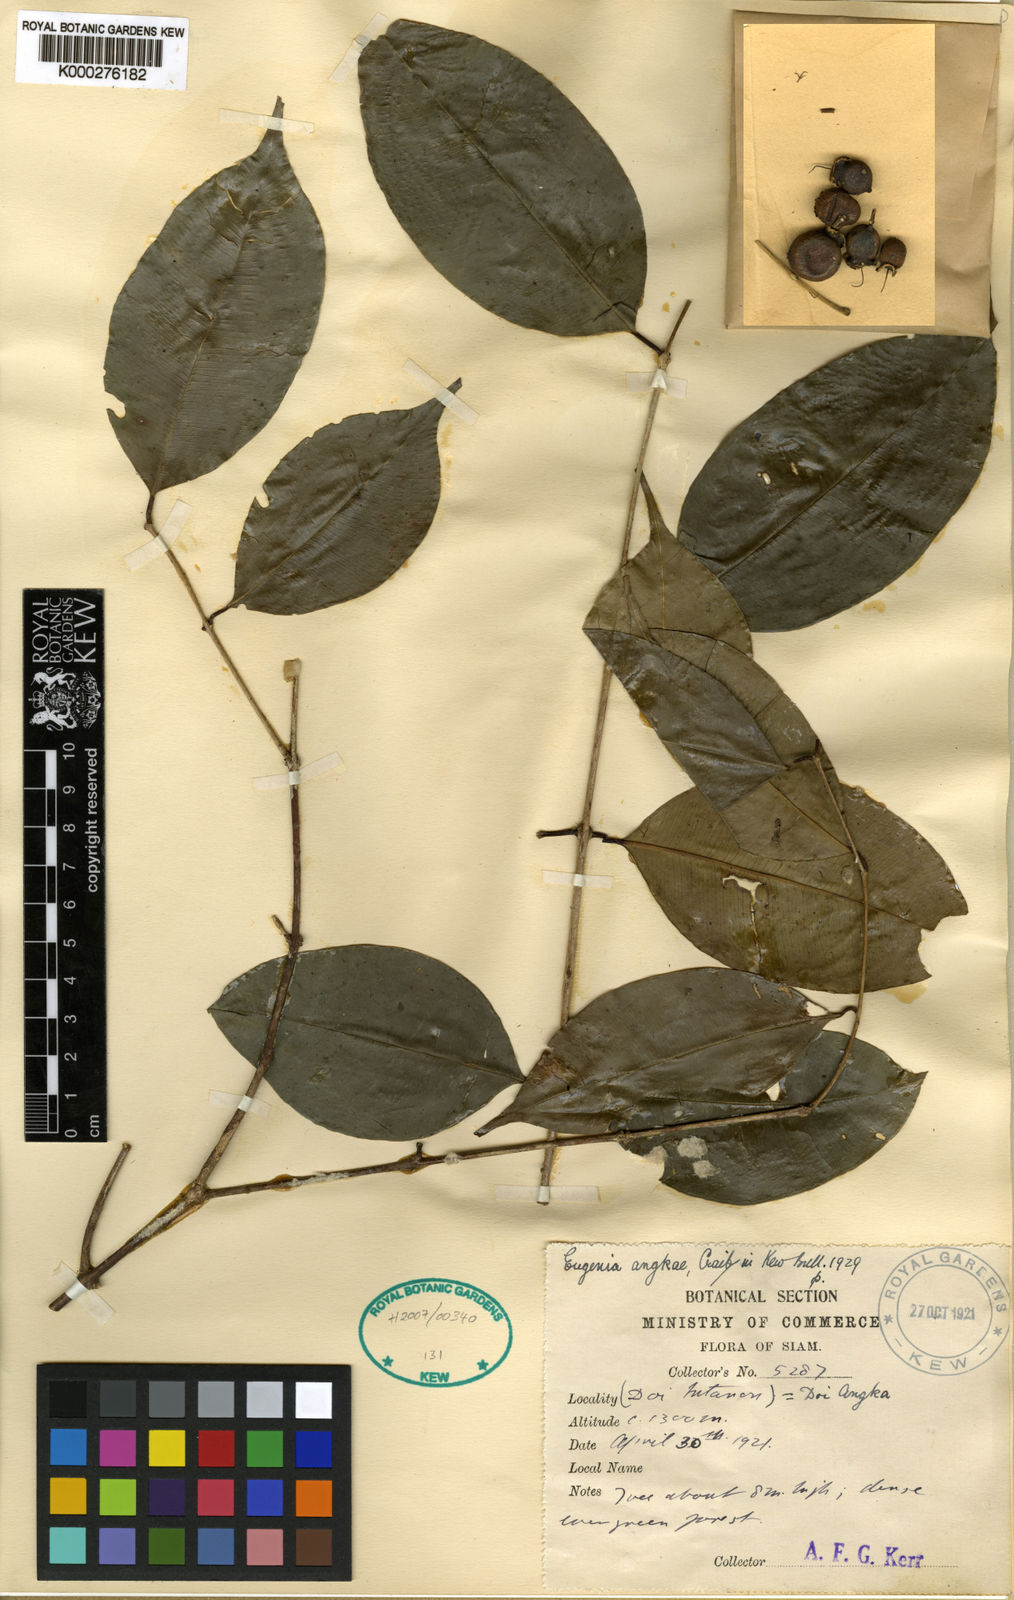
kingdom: Plantae
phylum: Tracheophyta
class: Magnoliopsida
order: Myrtales
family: Myrtaceae
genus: Syzygium
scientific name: Syzygium angkae
